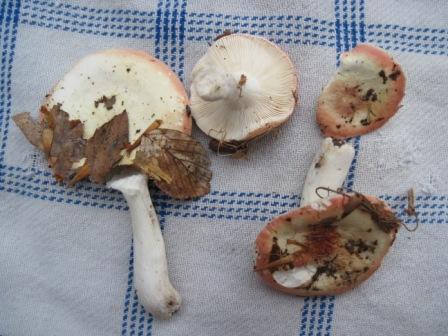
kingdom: Fungi
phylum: Basidiomycota
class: Agaricomycetes
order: Russulales
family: Russulaceae
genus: Russula
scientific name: Russula aurora
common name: rosa skørhat
